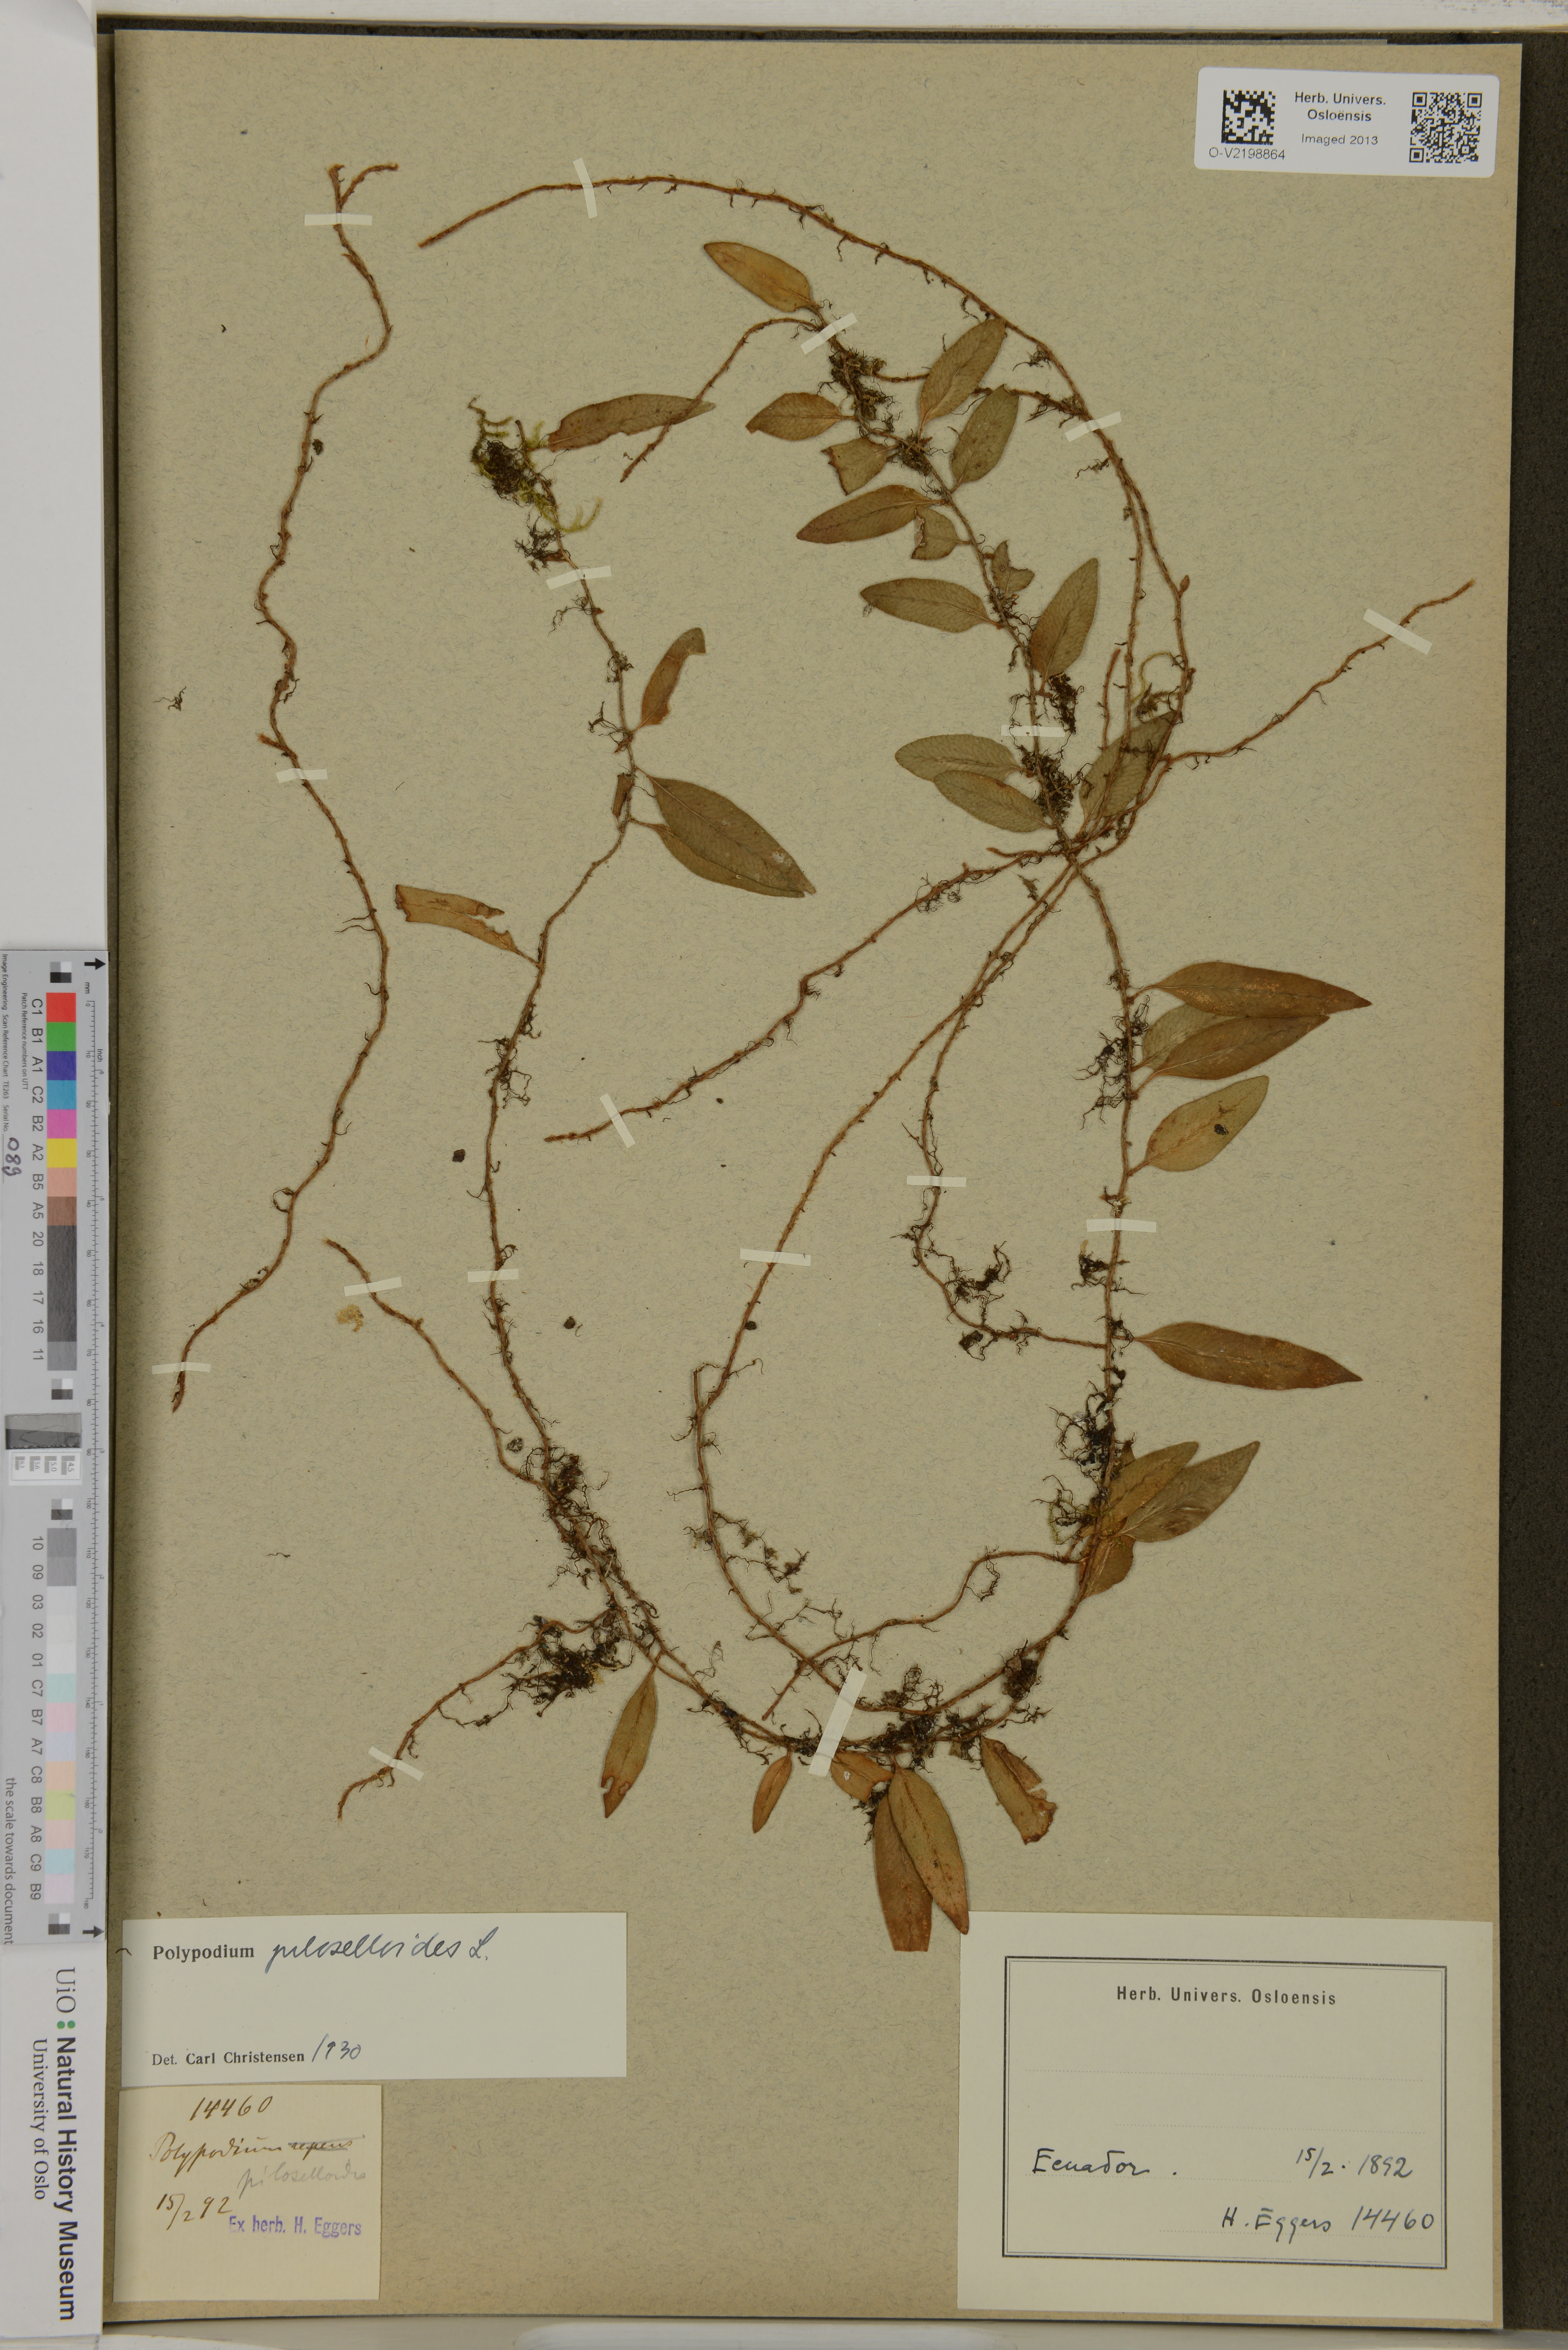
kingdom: Plantae
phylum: Tracheophyta
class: Polypodiopsida
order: Polypodiales
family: Polypodiaceae
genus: Polypodium
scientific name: Polypodium piloselloides
